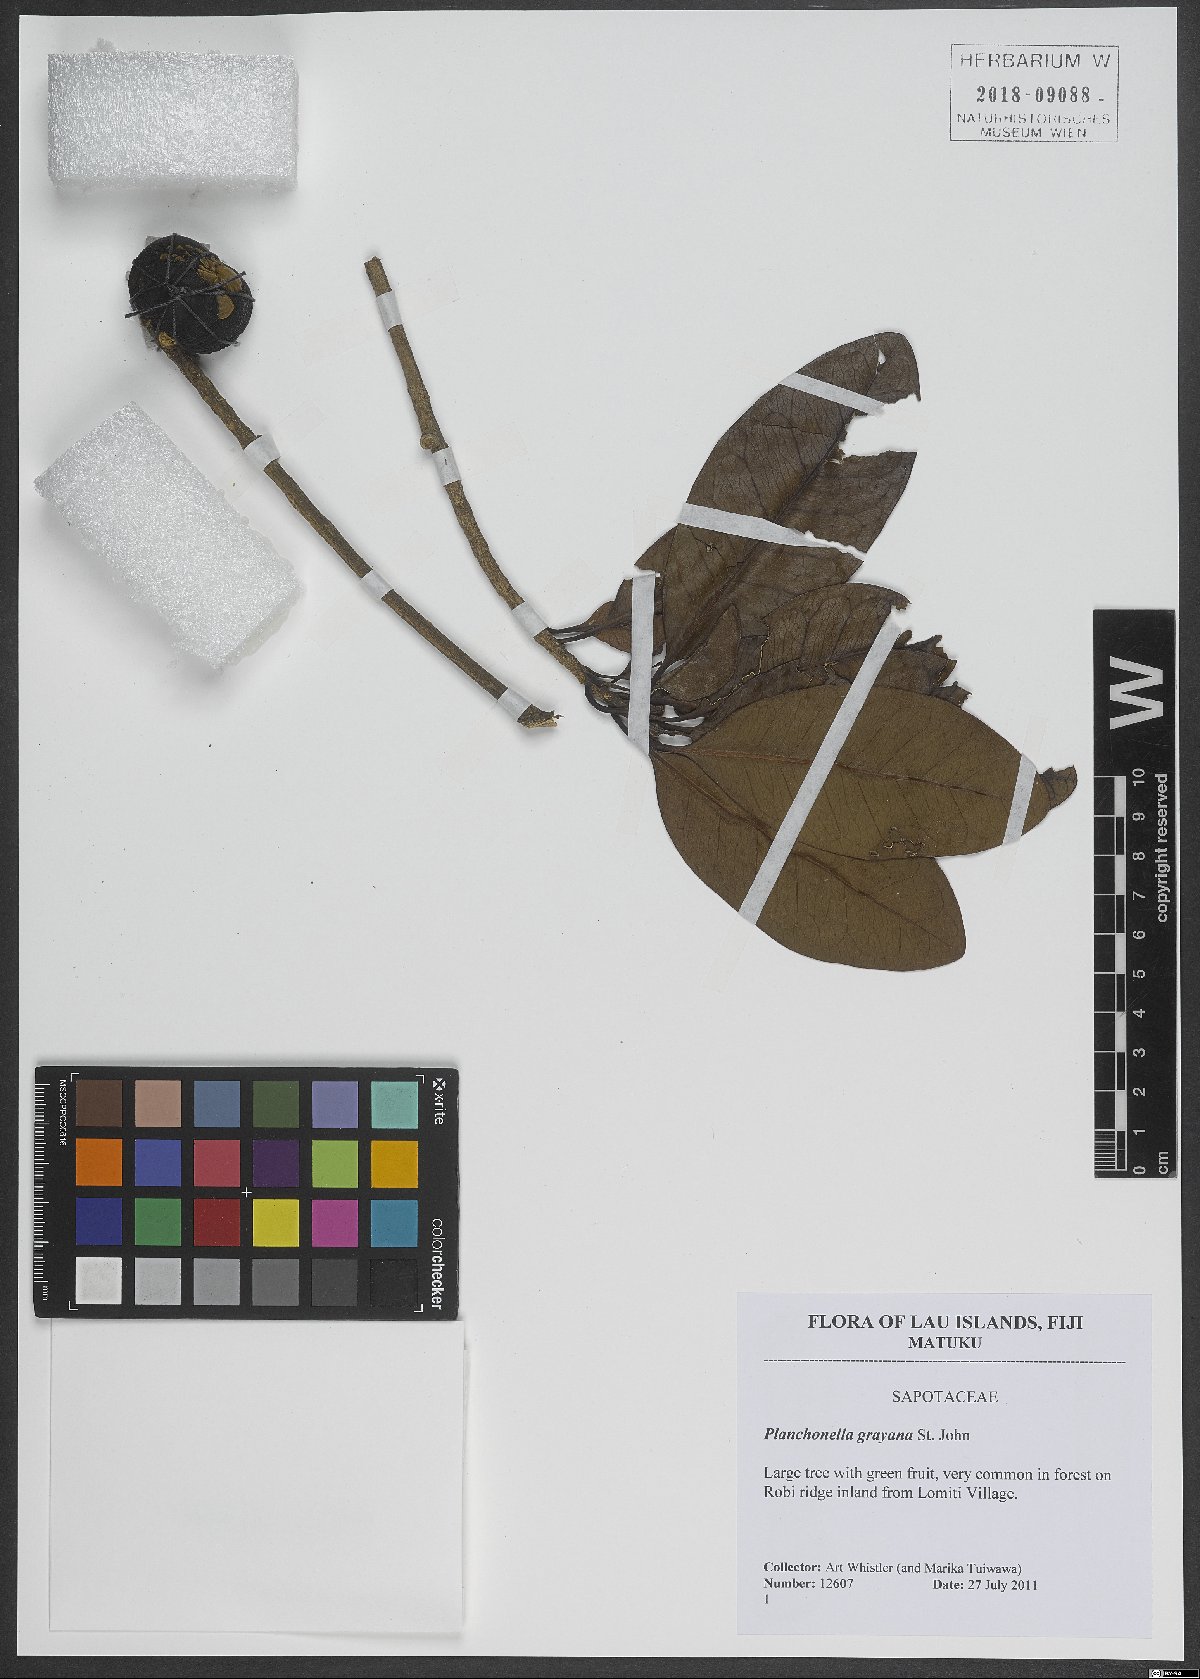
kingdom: Plantae
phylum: Tracheophyta
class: Magnoliopsida
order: Ericales
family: Sapotaceae
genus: Planchonella
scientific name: Planchonella tahitensis
